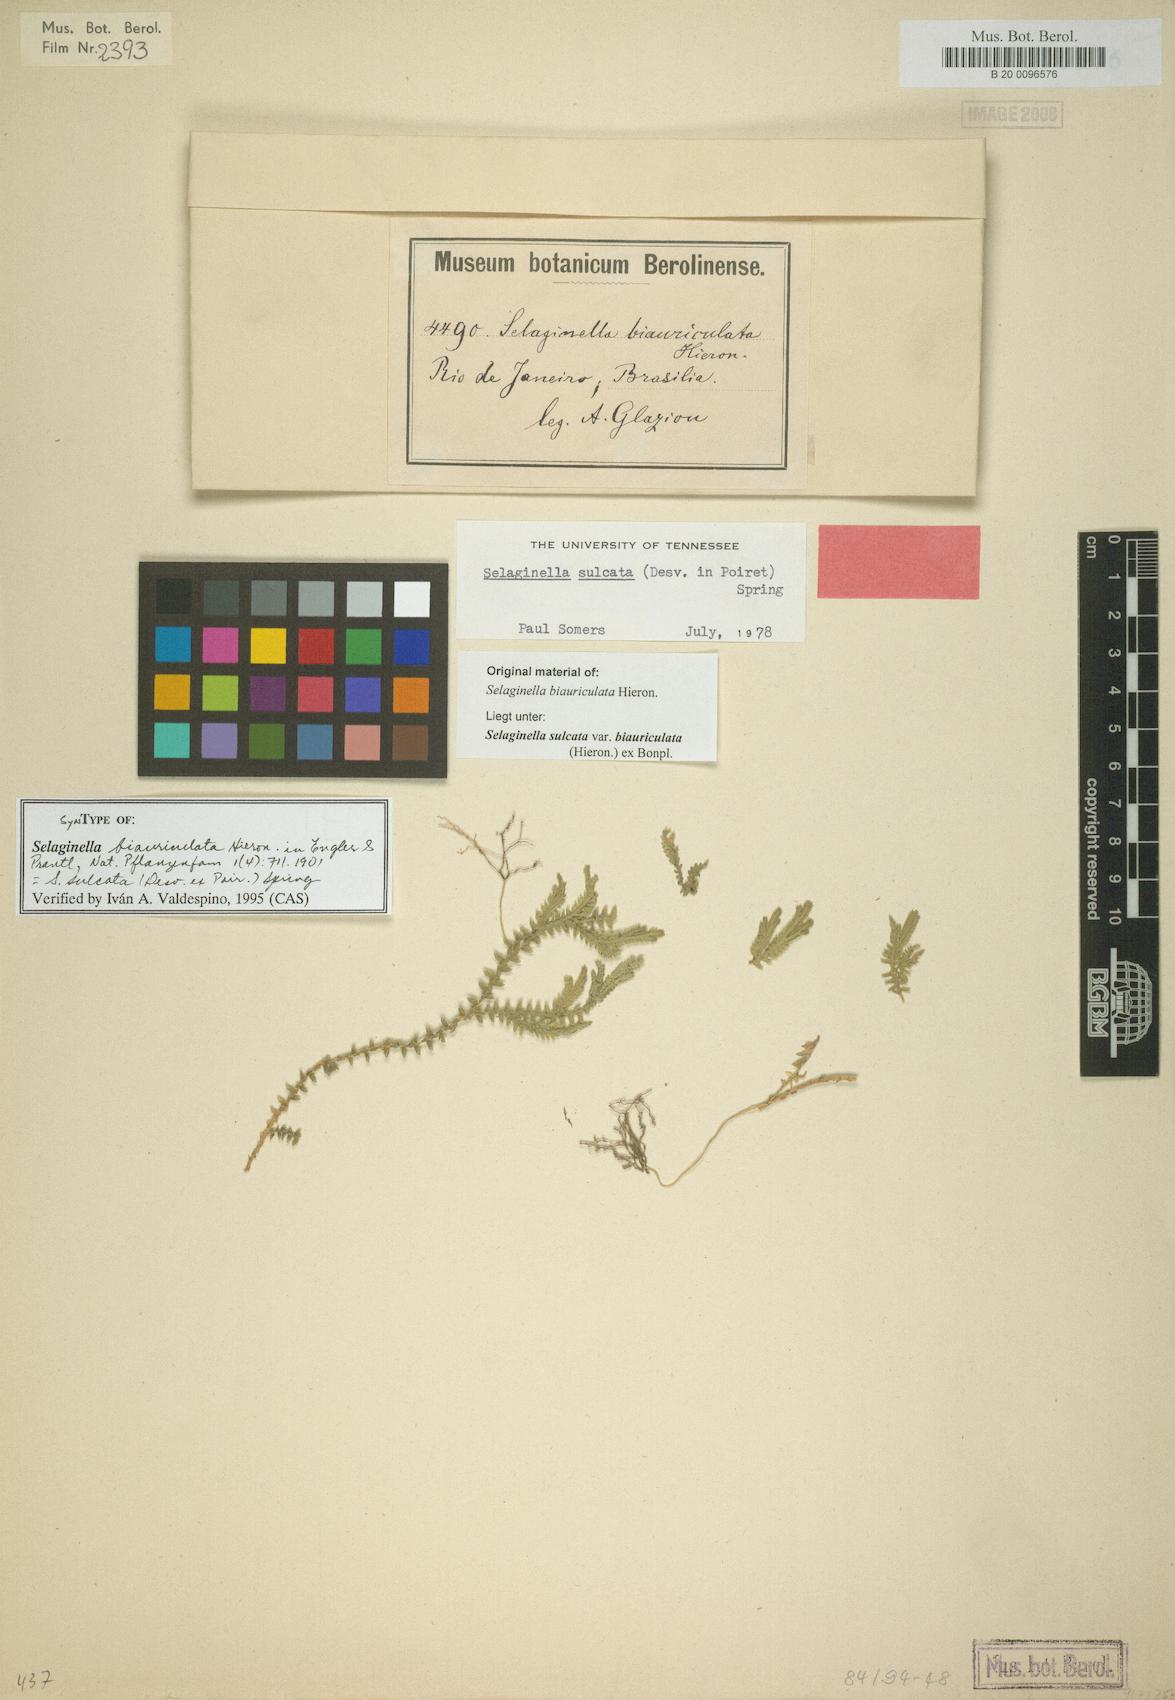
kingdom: Plantae
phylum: Tracheophyta
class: Lycopodiopsida
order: Selaginellales
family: Selaginellaceae
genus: Selaginella
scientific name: Selaginella sulcata
